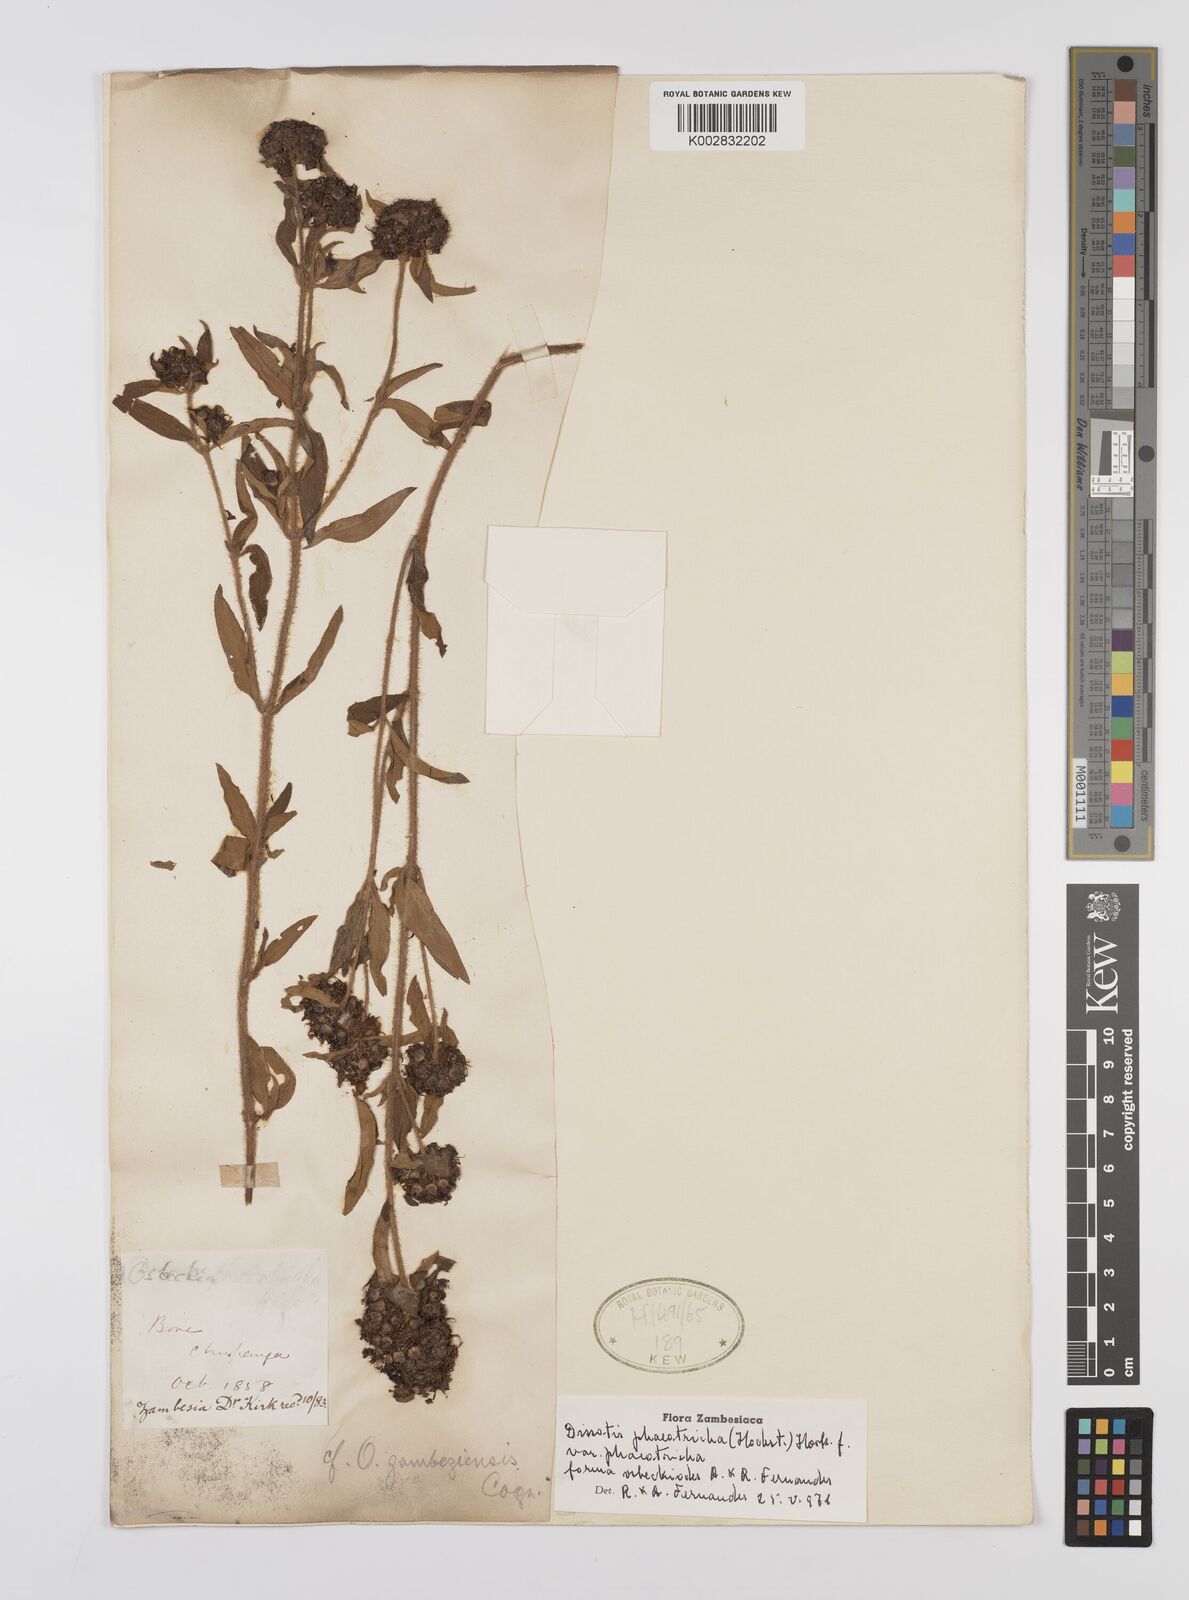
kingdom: Plantae
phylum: Tracheophyta
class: Magnoliopsida
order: Myrtales
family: Melastomataceae
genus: Antherotoma
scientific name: Antherotoma phaeotricha
